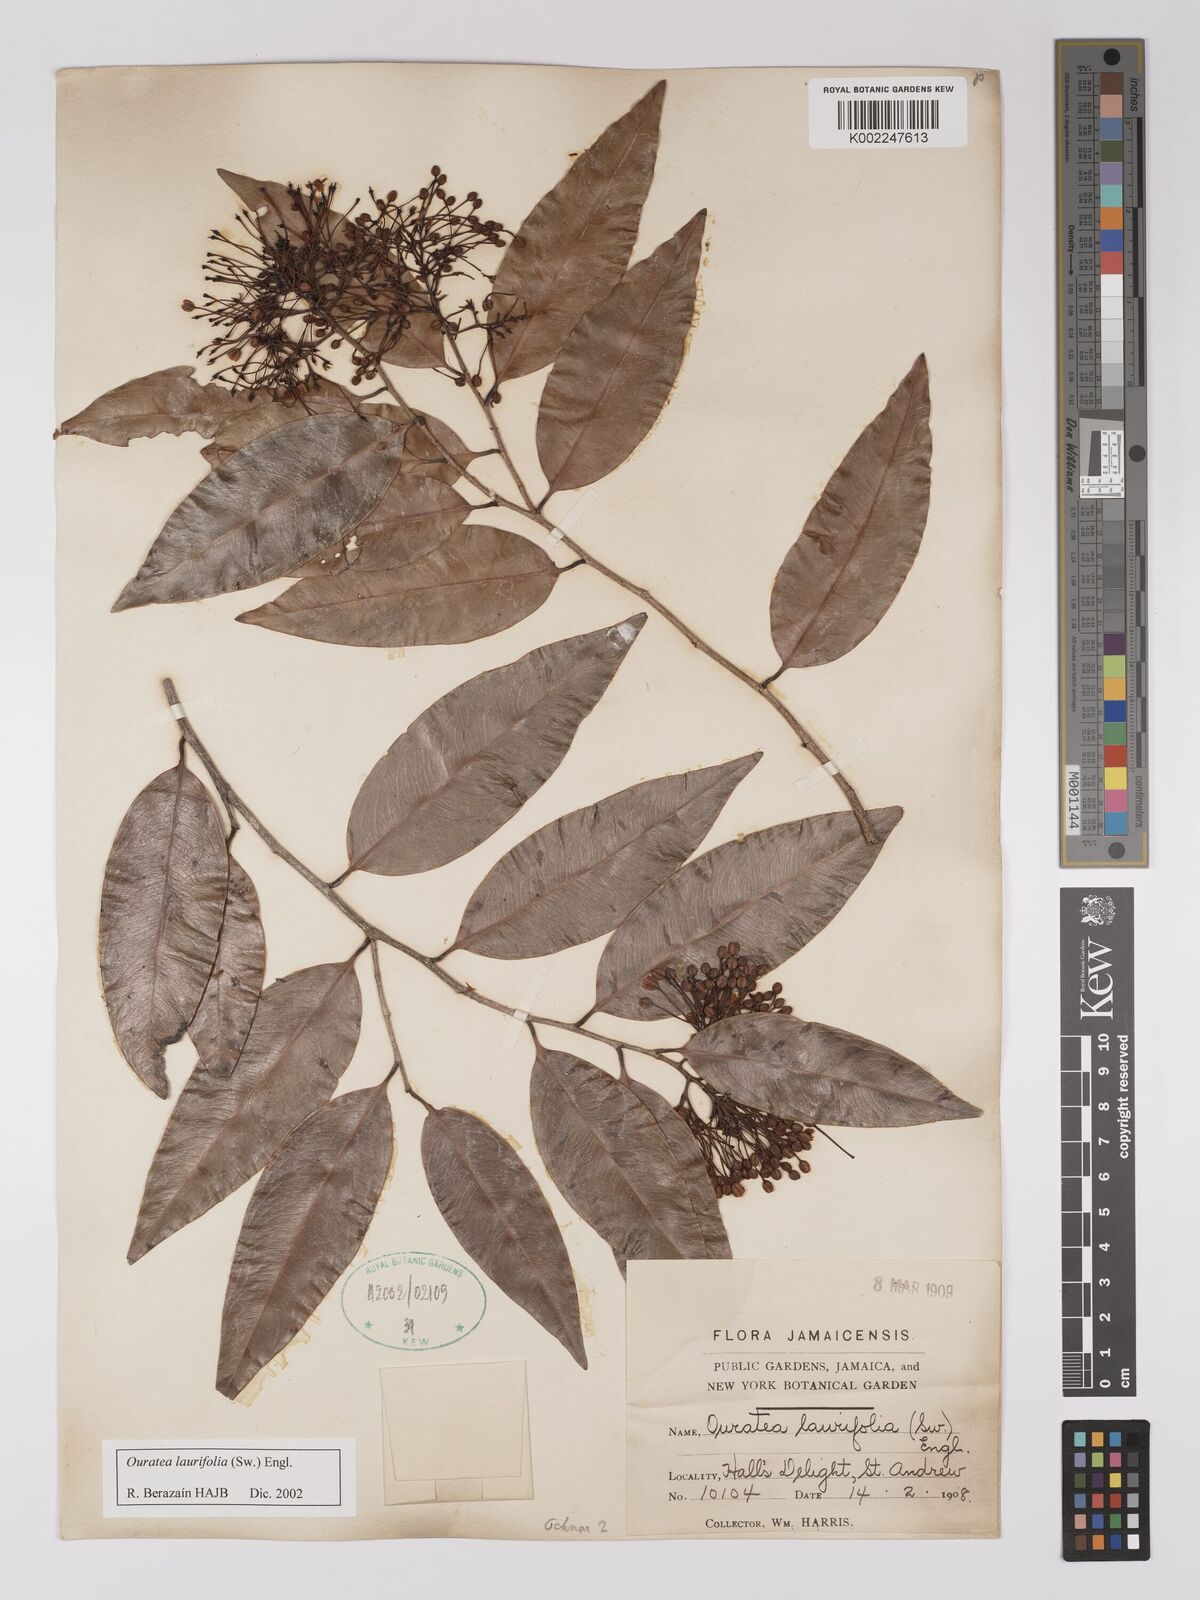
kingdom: Plantae
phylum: Tracheophyta
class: Magnoliopsida
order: Malpighiales
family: Ochnaceae
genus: Ouratea
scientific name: Ouratea laurifolia
